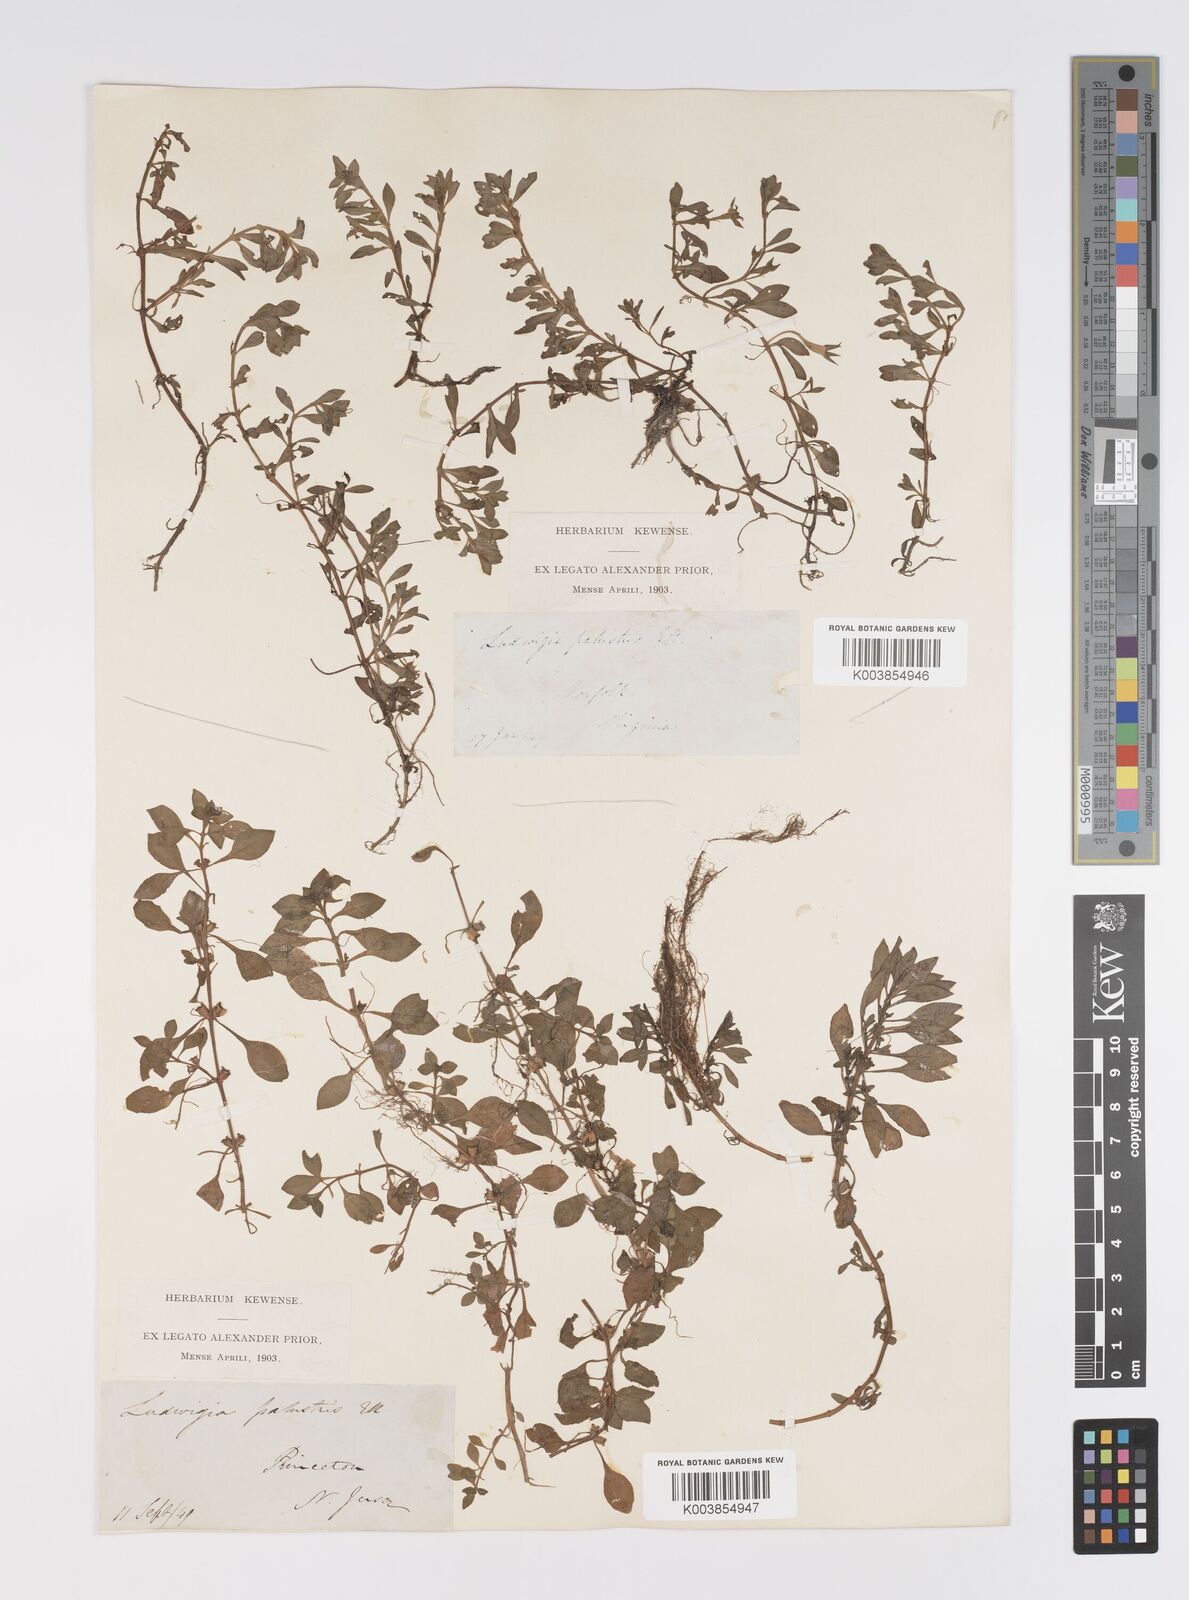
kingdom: Plantae
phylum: Tracheophyta
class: Magnoliopsida
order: Myrtales
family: Onagraceae
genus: Ludwigia
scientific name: Ludwigia palustris
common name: Hampshire-purslane
